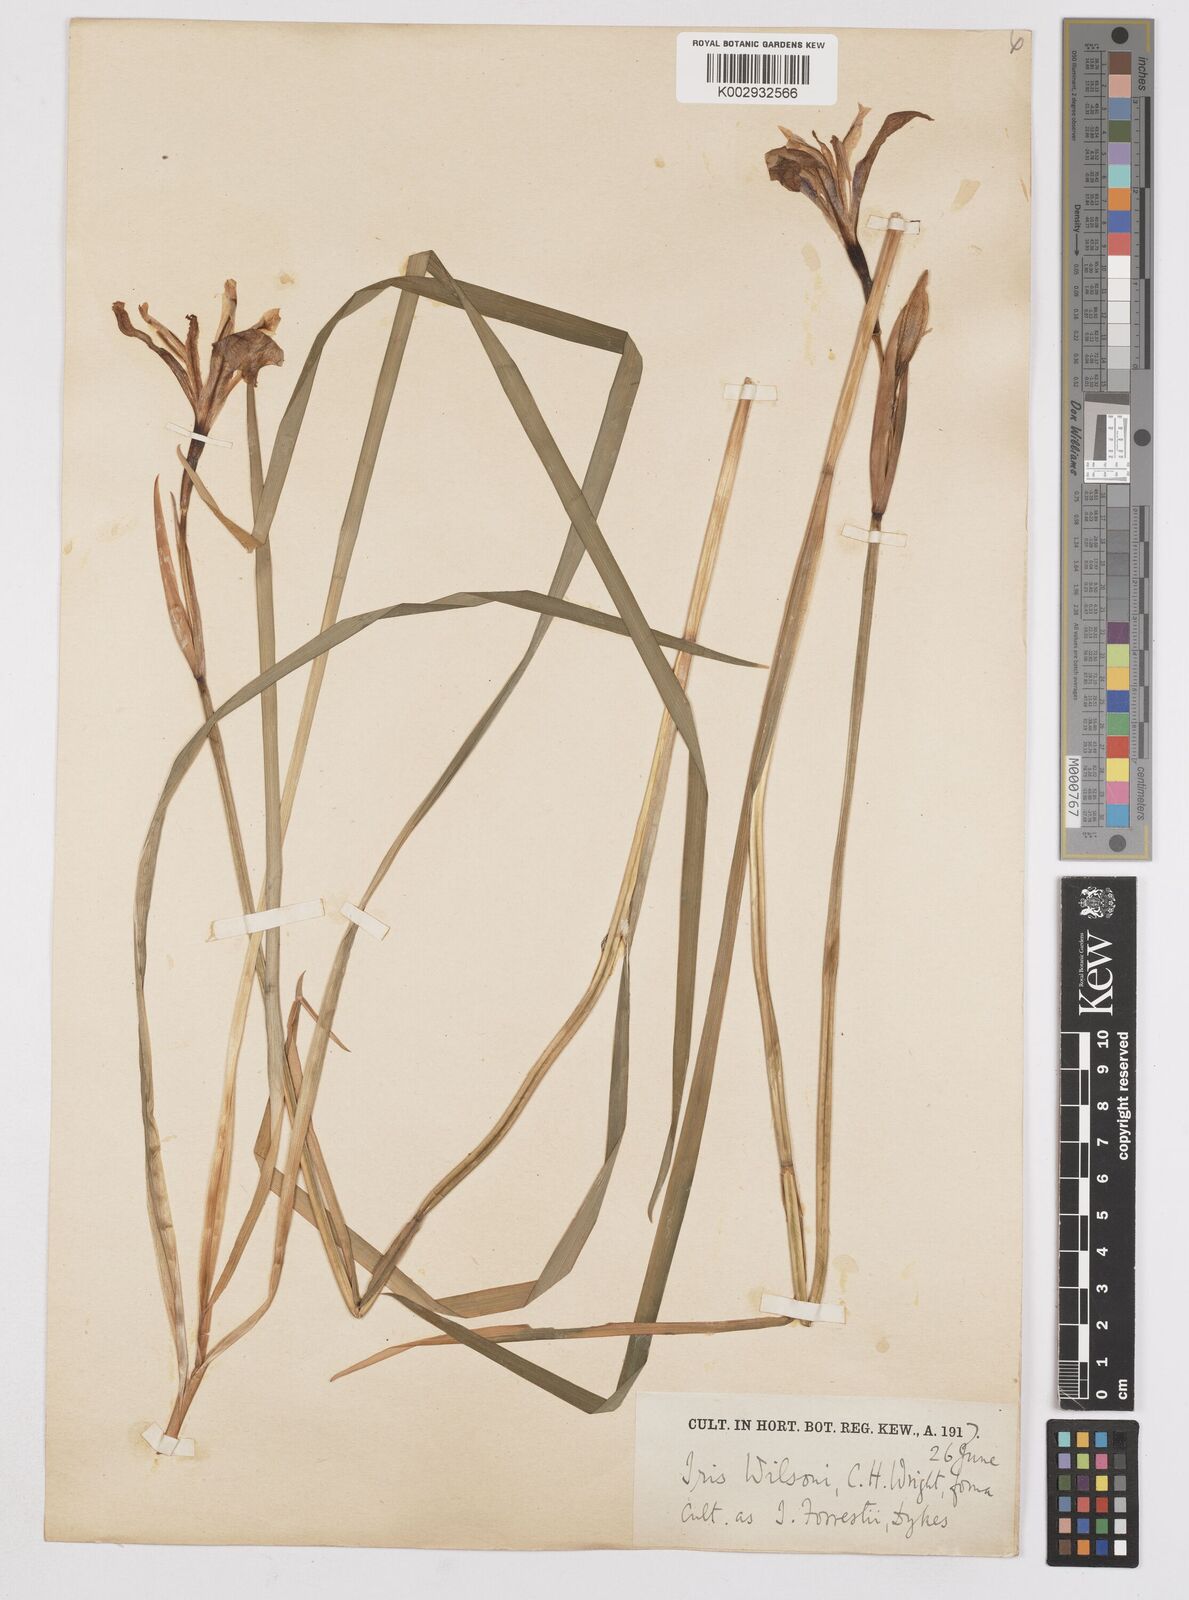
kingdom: Plantae
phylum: Tracheophyta
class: Liliopsida
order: Asparagales
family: Iridaceae
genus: Iris
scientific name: Iris wilsonii
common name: Yellow-flower iris
